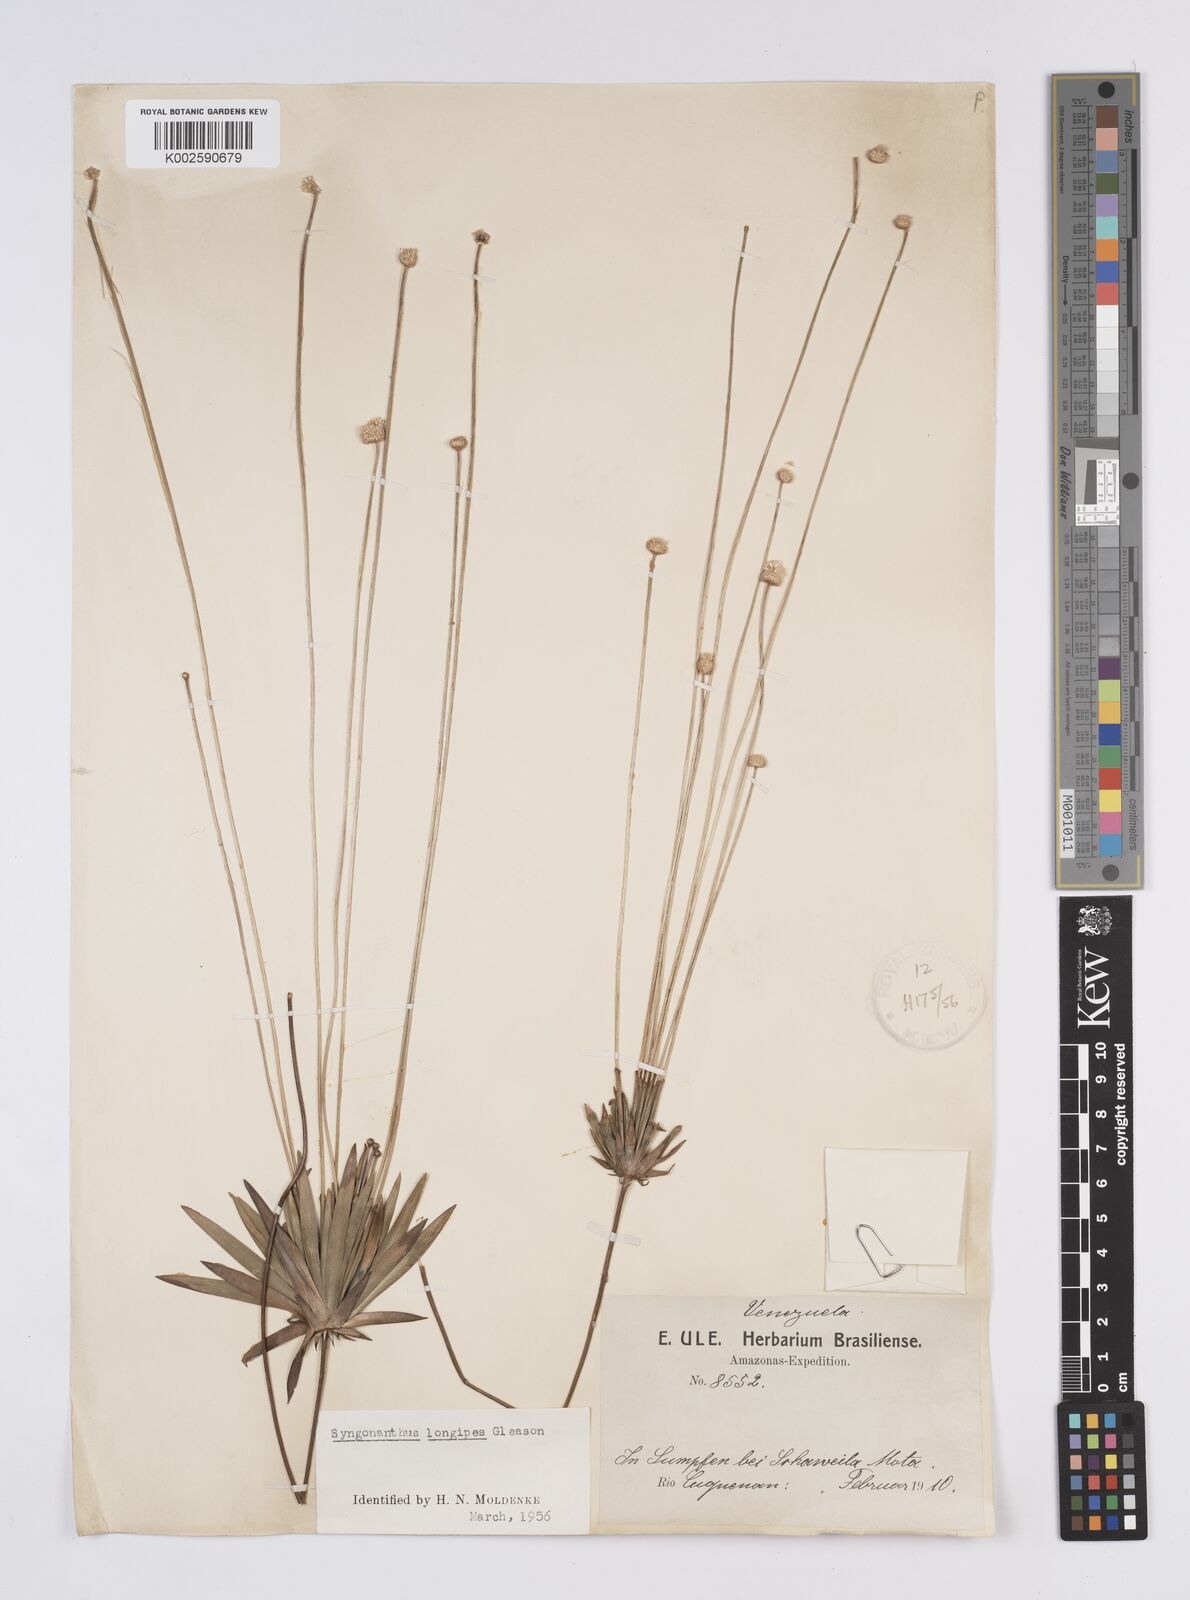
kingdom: Plantae
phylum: Tracheophyta
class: Liliopsida
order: Poales
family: Eriocaulaceae
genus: Syngonanthus
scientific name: Syngonanthus longipes
